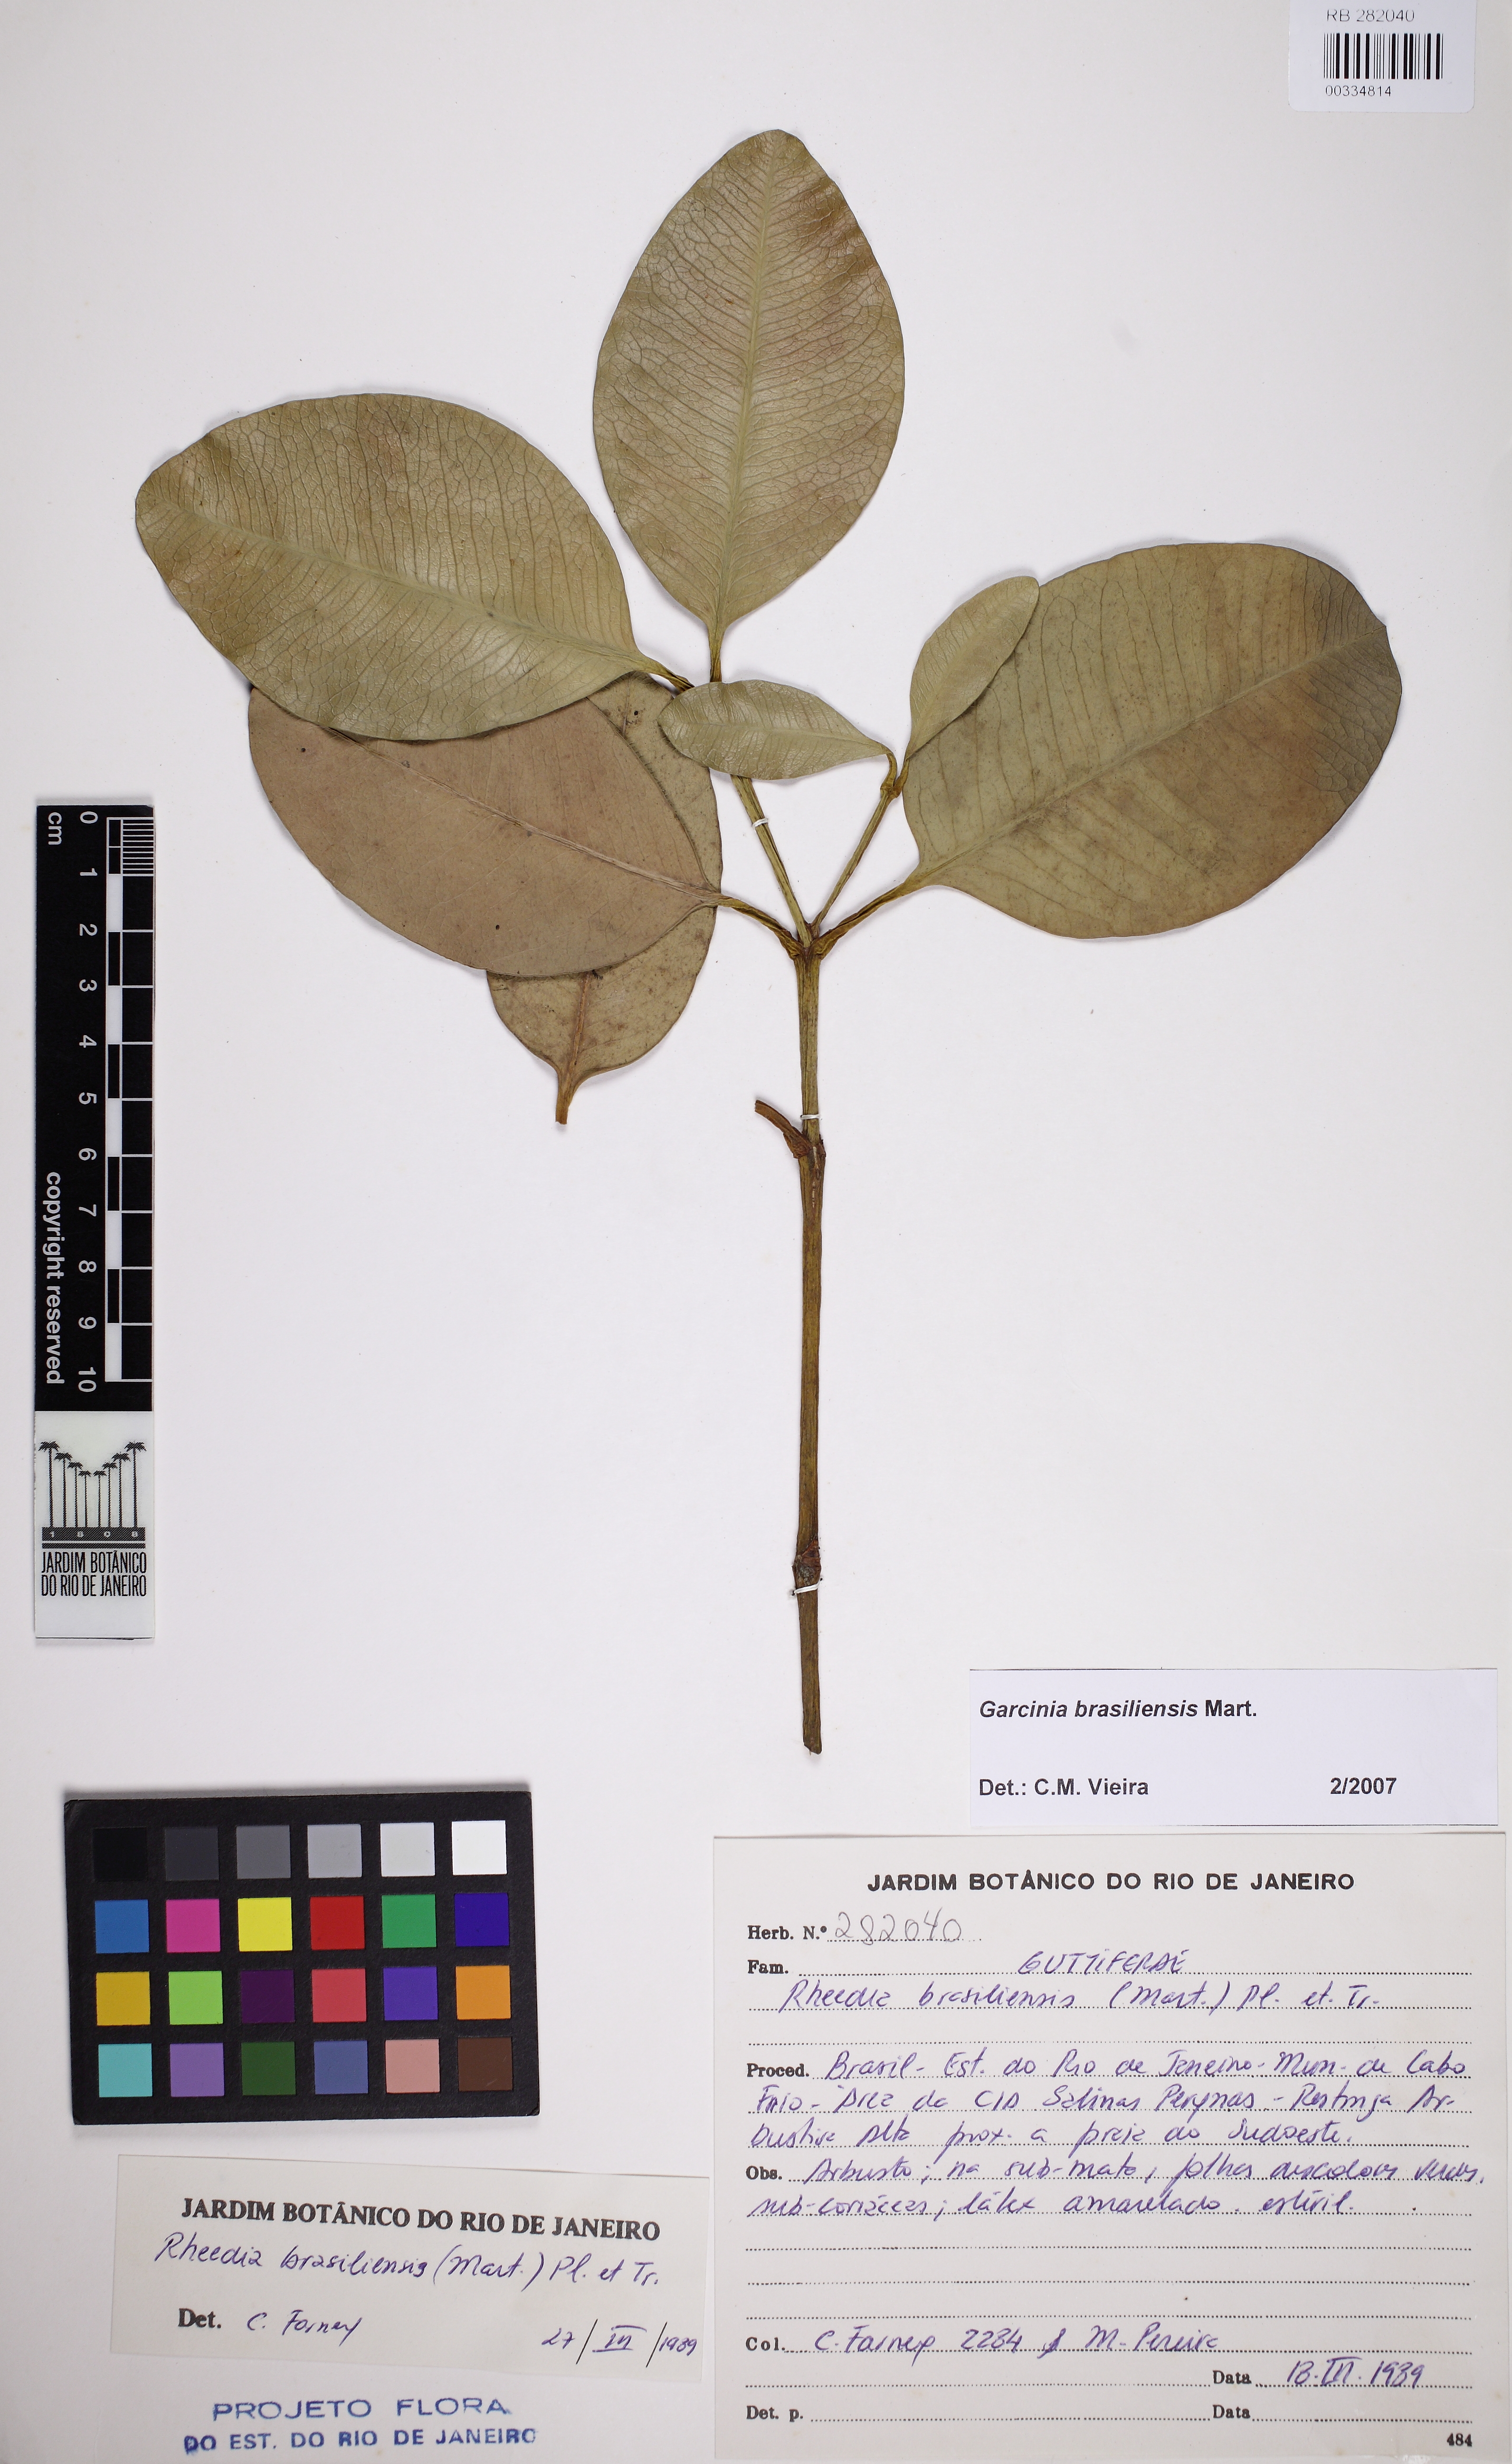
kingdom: Plantae
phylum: Tracheophyta
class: Magnoliopsida
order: Malpighiales
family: Clusiaceae
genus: Garcinia
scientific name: Garcinia brasiliensis
